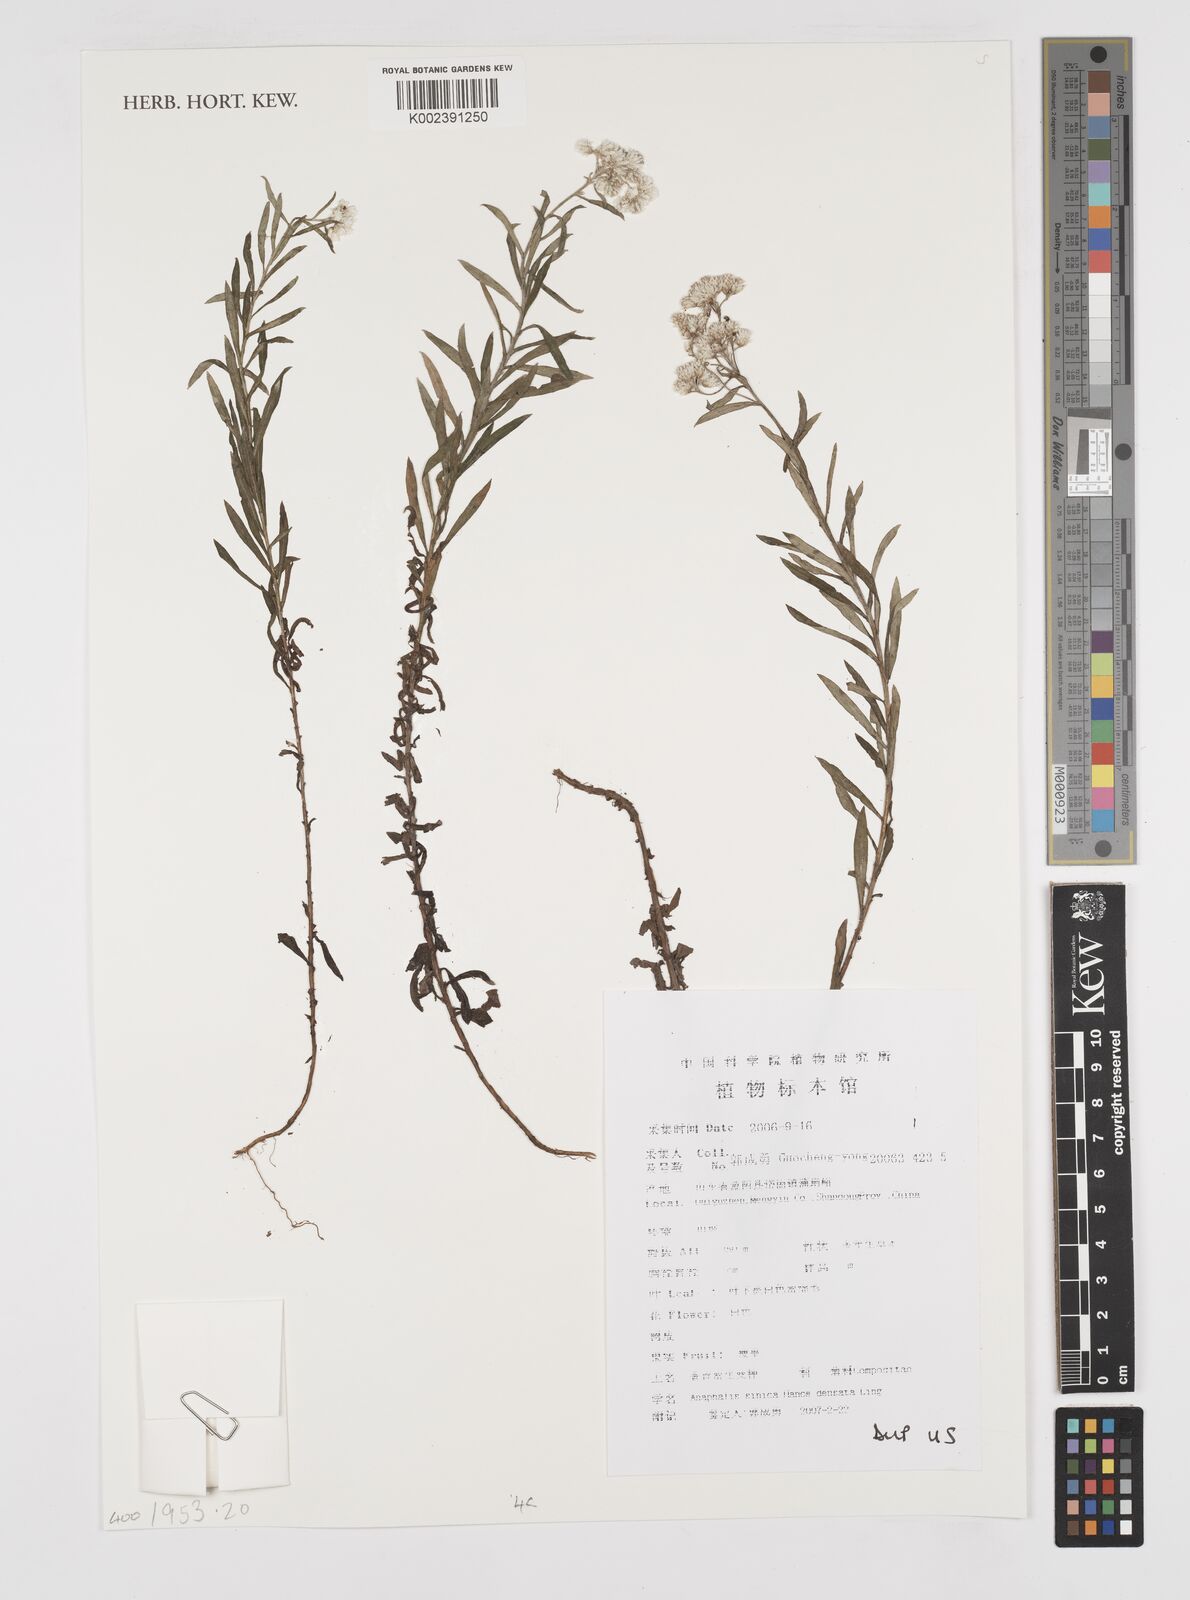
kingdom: Plantae
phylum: Tracheophyta
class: Magnoliopsida
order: Asterales
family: Asteraceae
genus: Anaphalis
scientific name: Anaphalis sinica
